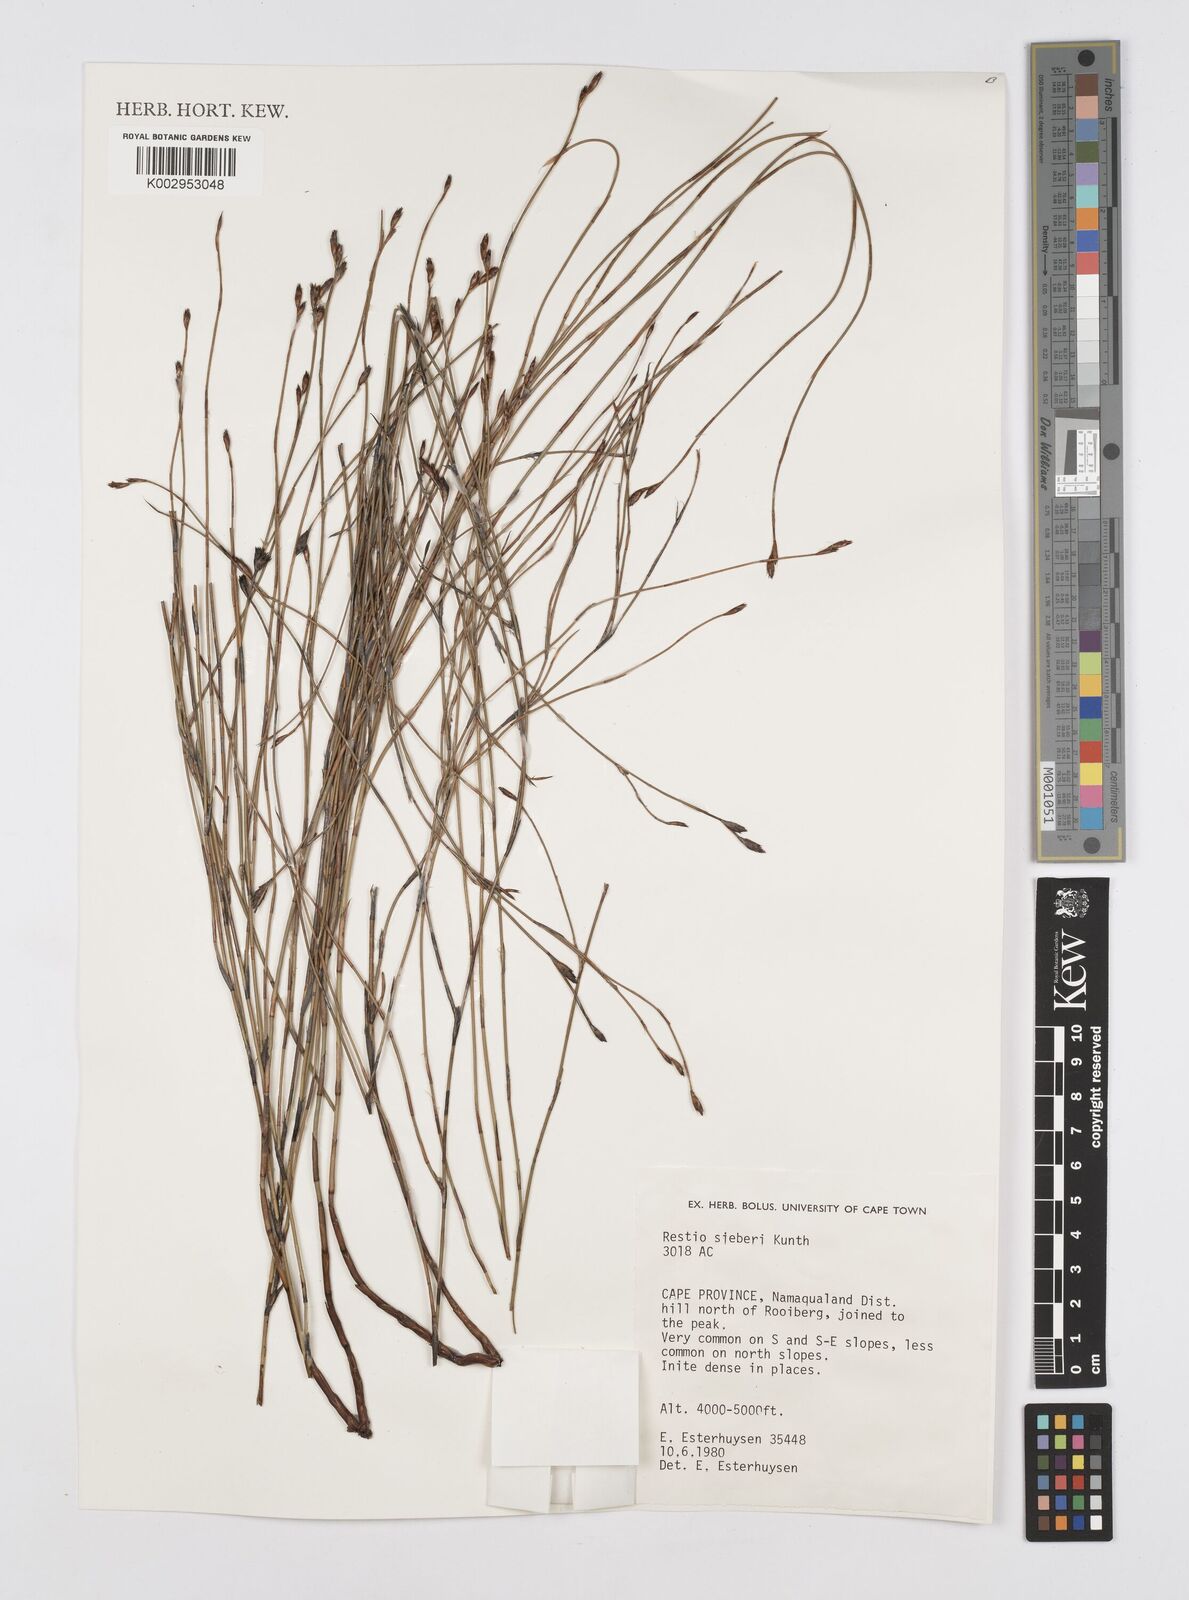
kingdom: Plantae
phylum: Tracheophyta
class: Liliopsida
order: Poales
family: Restionaceae
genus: Restio
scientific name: Restio sieberi
